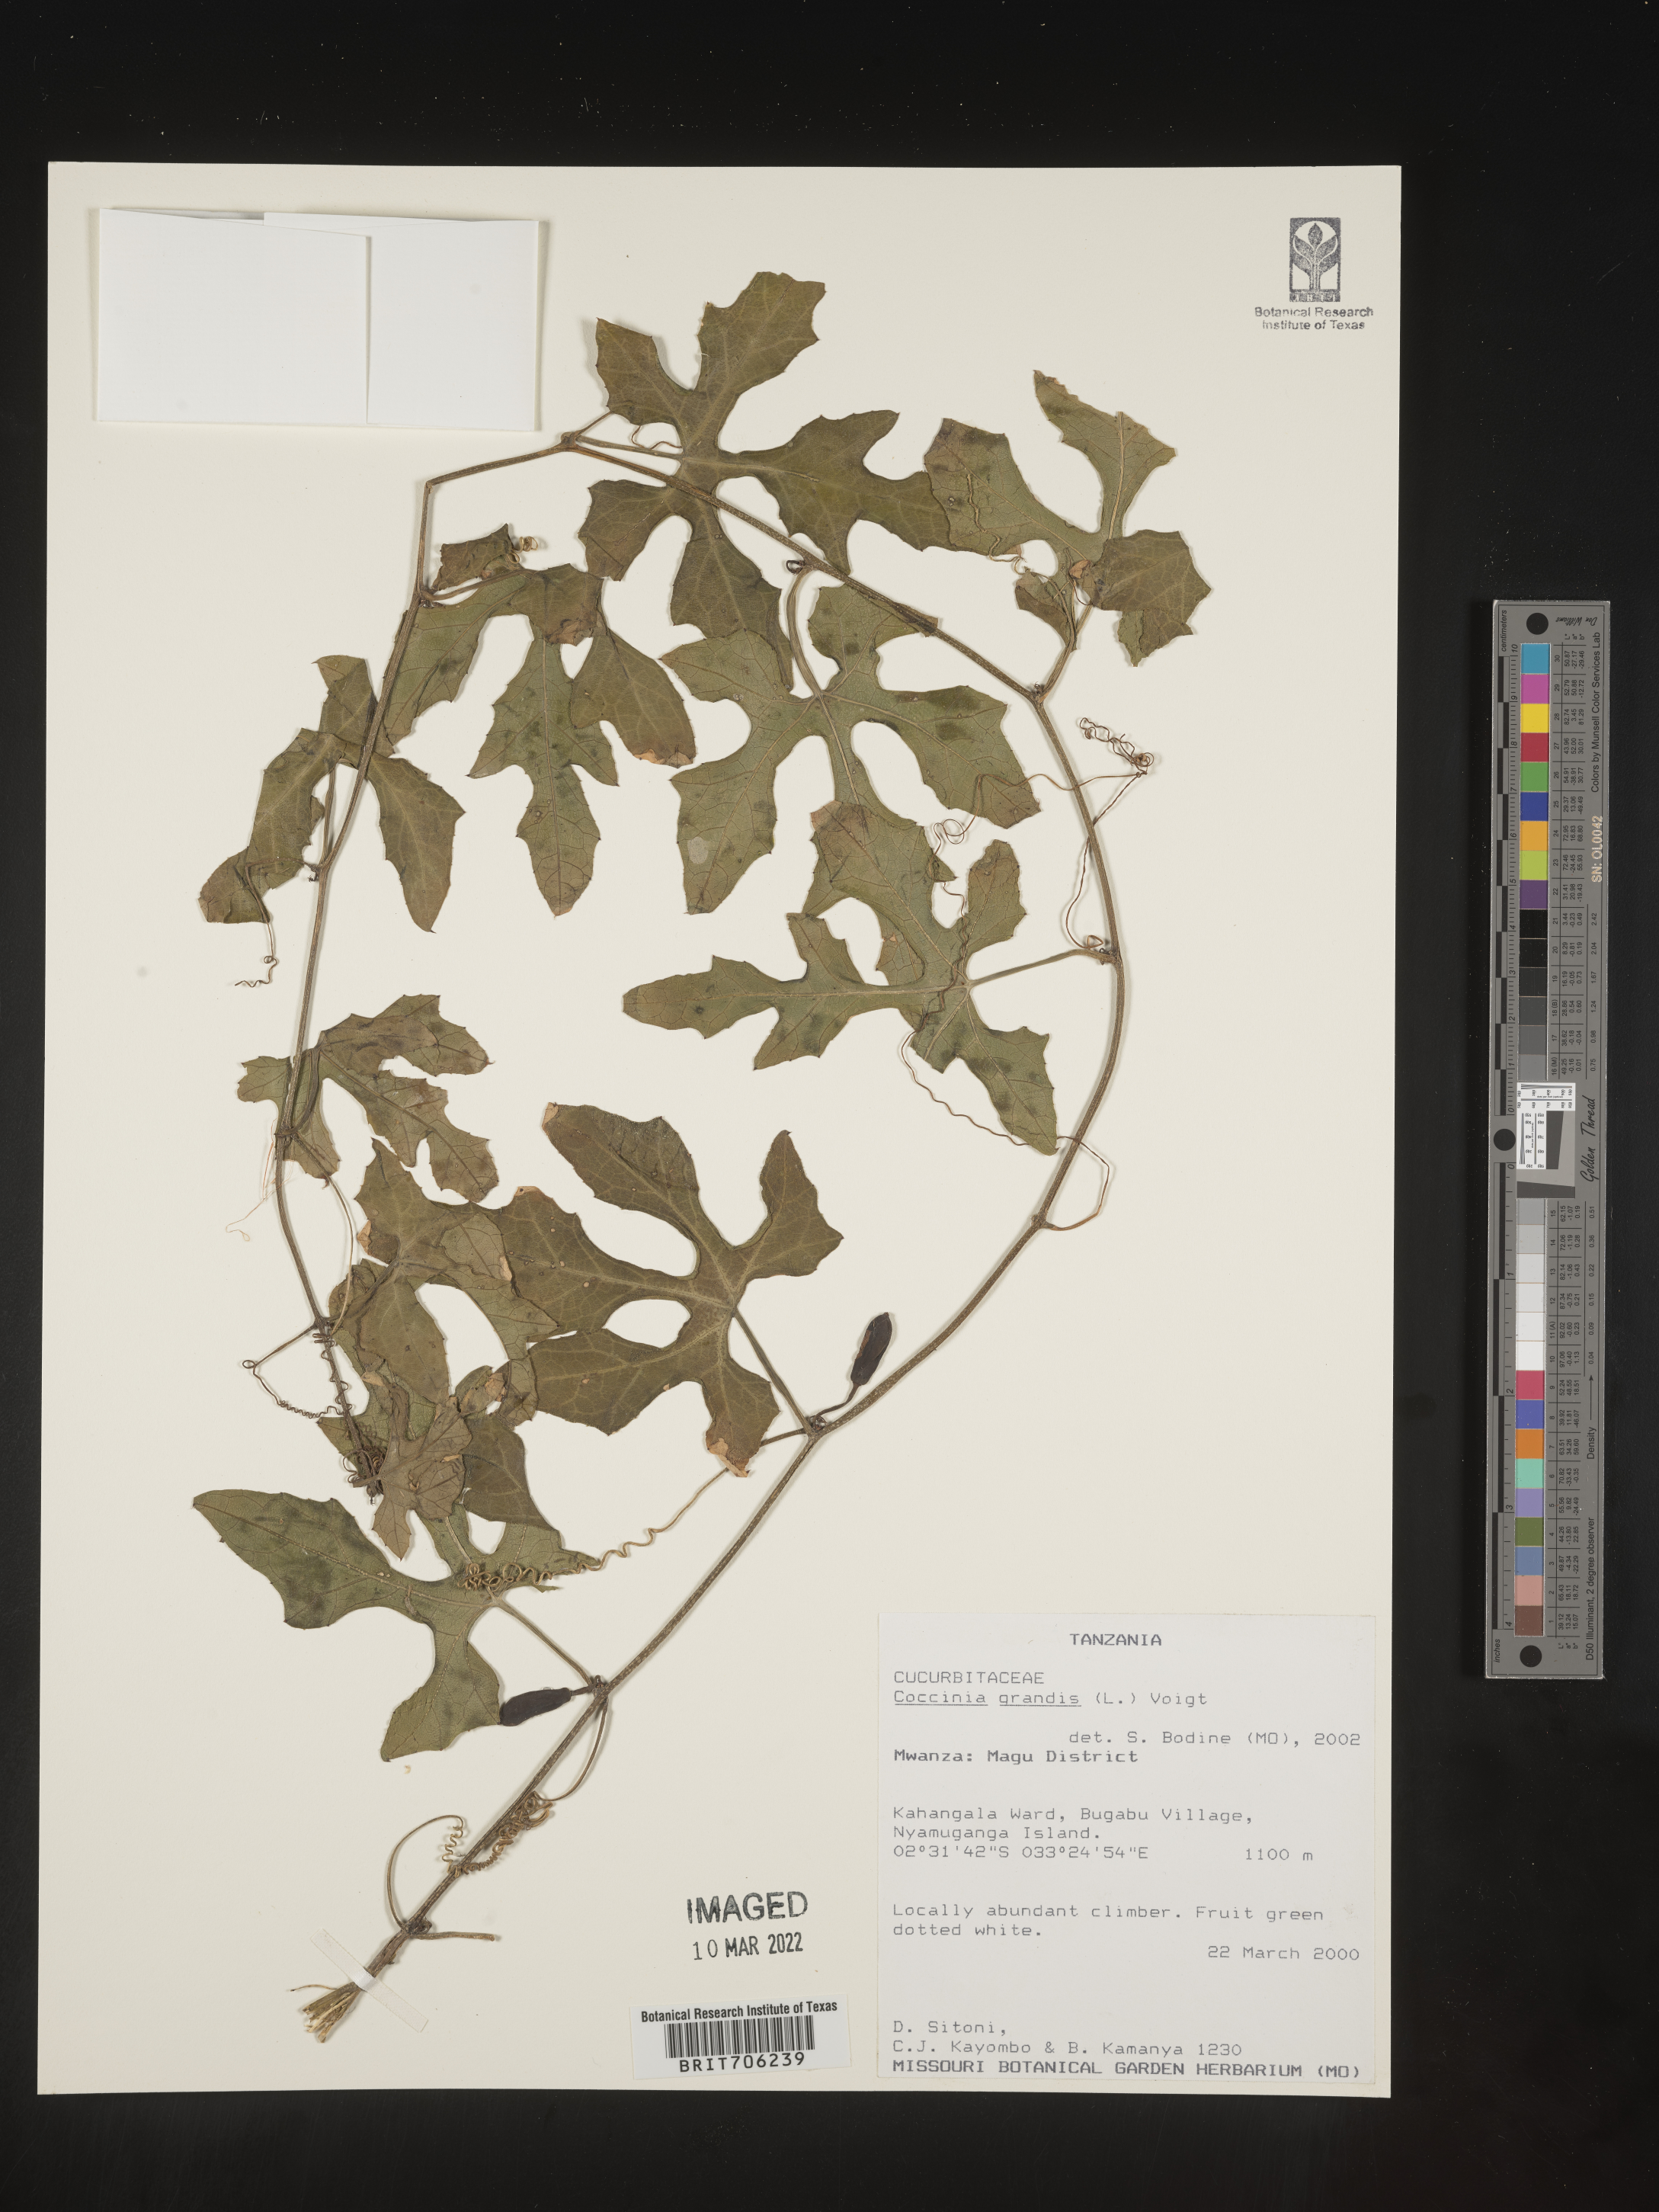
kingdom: Plantae
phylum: Tracheophyta
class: Magnoliopsida
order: Cucurbitales
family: Cucurbitaceae
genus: Coccinia
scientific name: Coccinia
